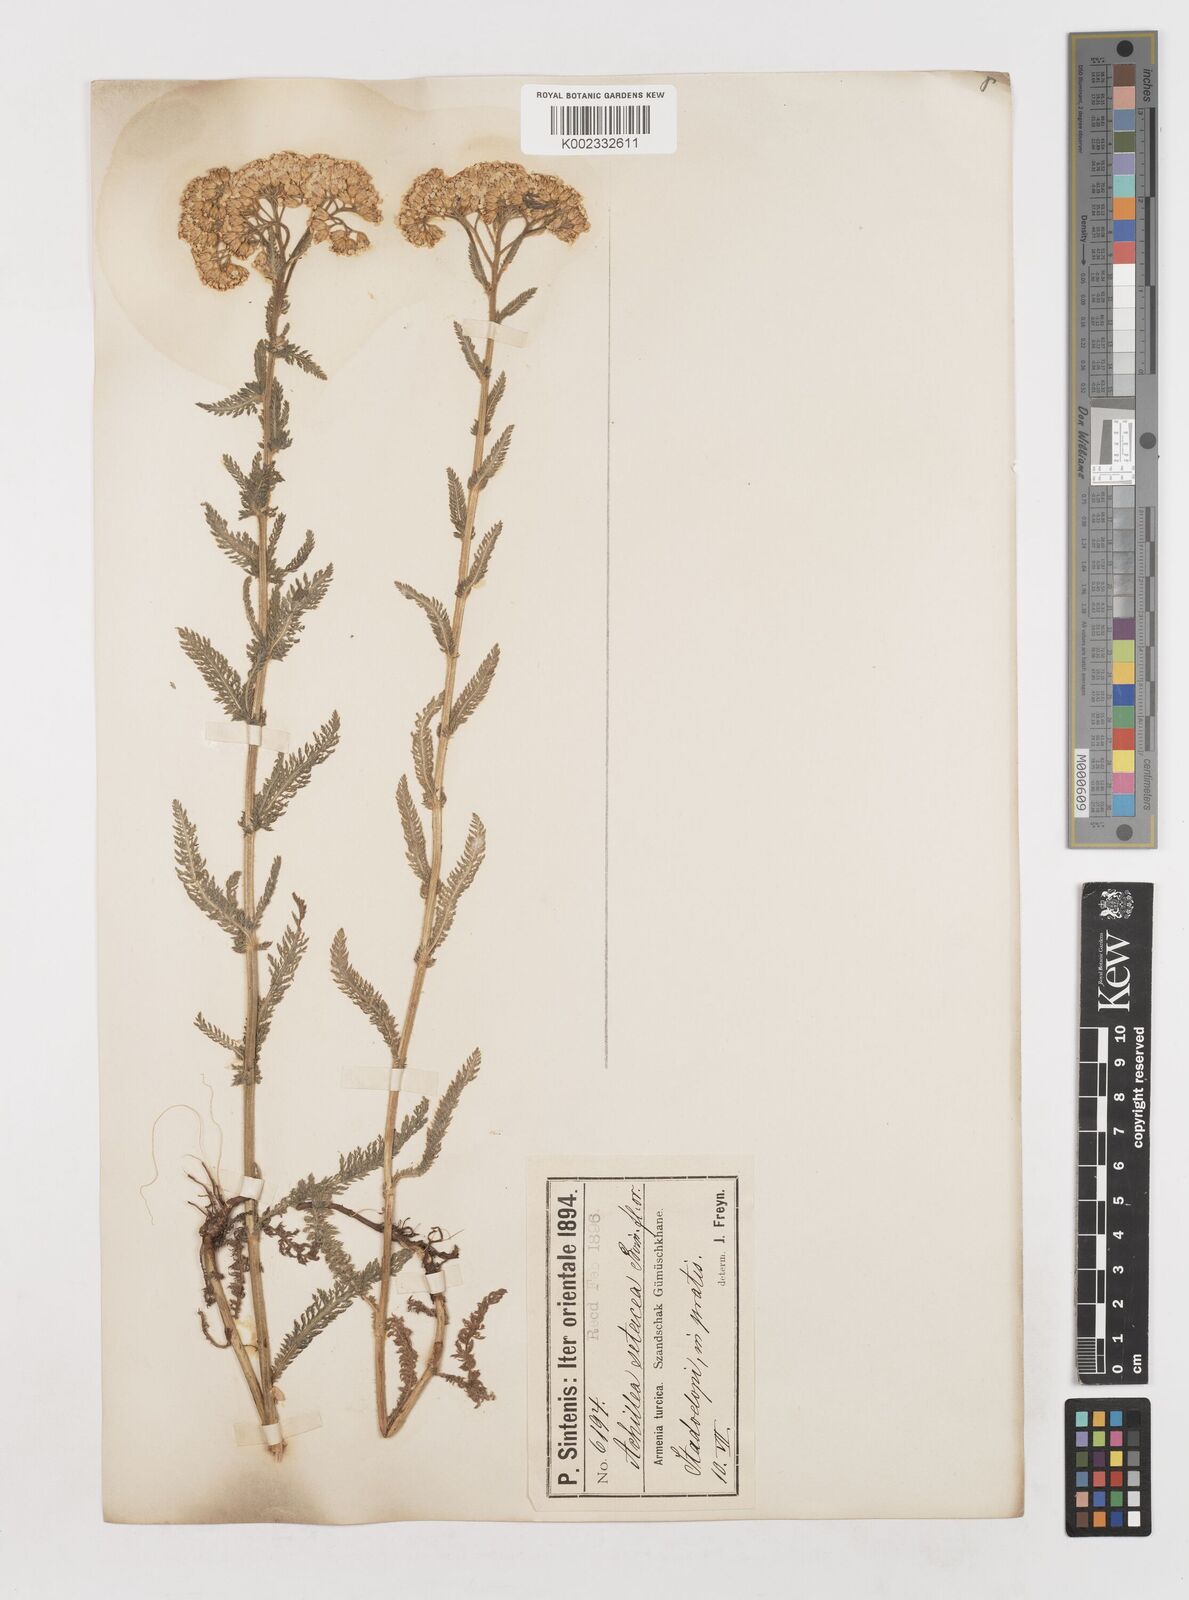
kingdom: Plantae
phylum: Tracheophyta
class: Magnoliopsida
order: Asterales
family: Asteraceae
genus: Achillea
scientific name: Achillea
